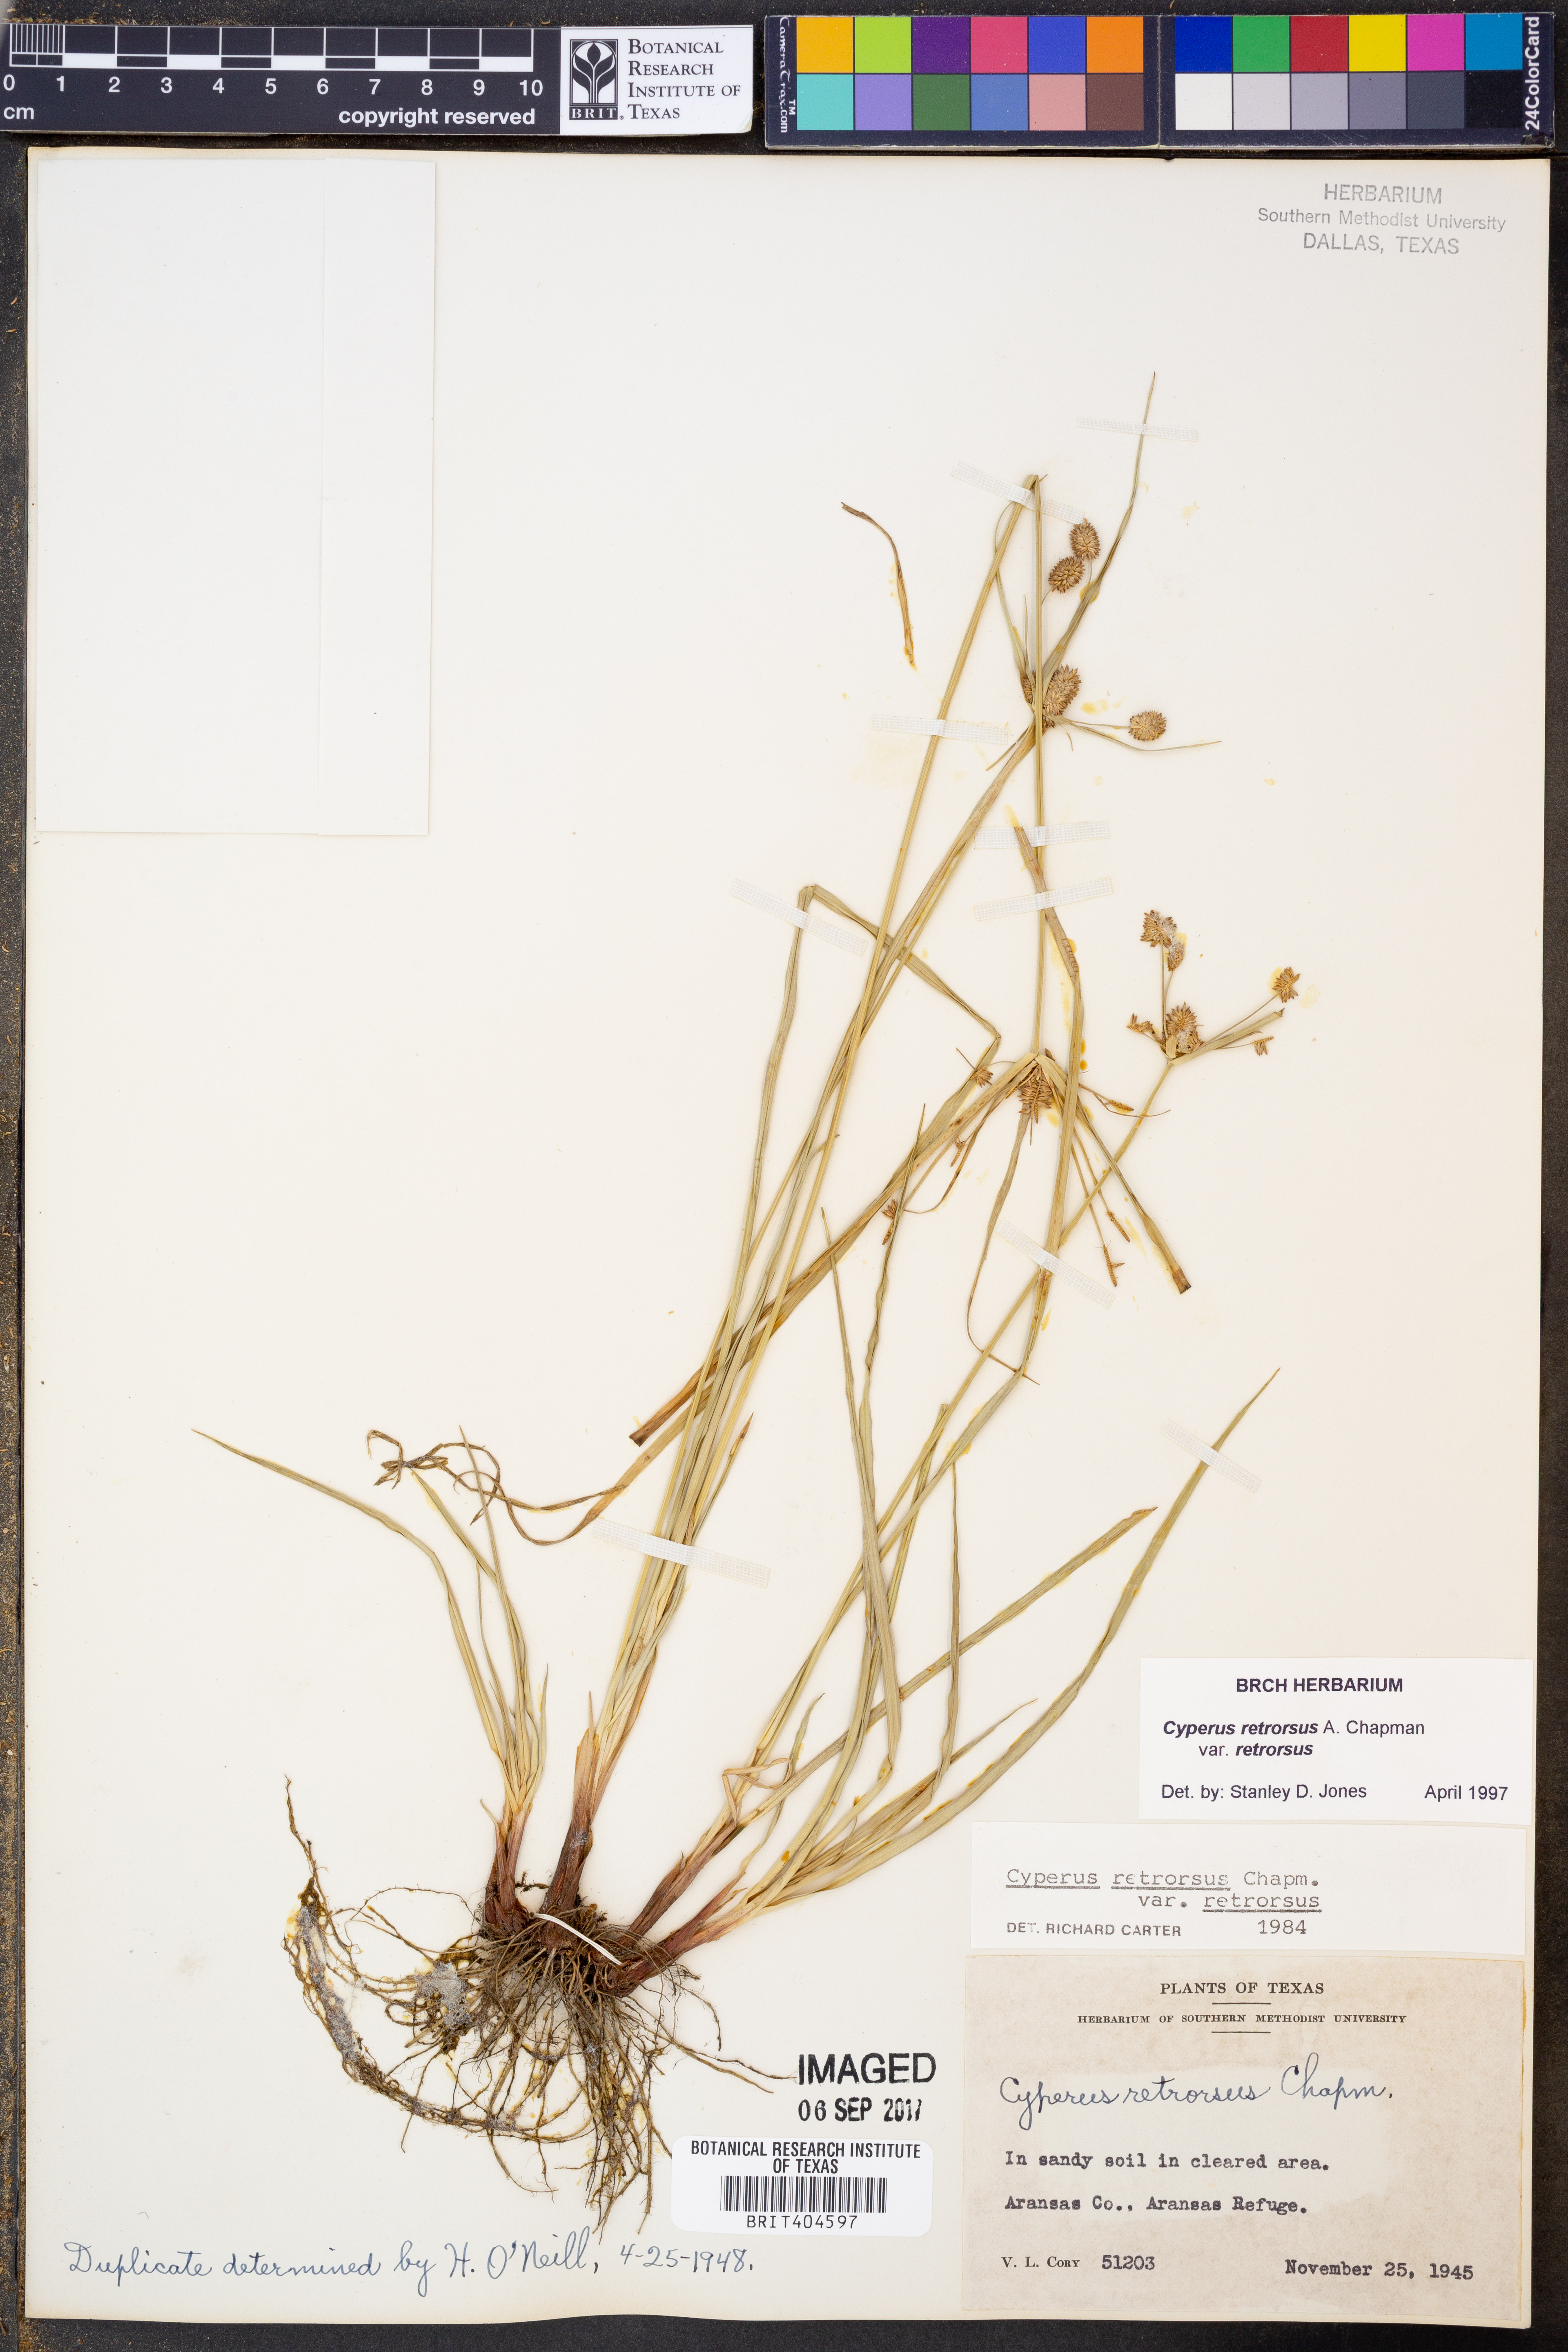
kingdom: Plantae
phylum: Tracheophyta
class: Liliopsida
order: Poales
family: Cyperaceae
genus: Cyperus
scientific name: Cyperus retrorsus
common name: Pinebarren flat sedge
